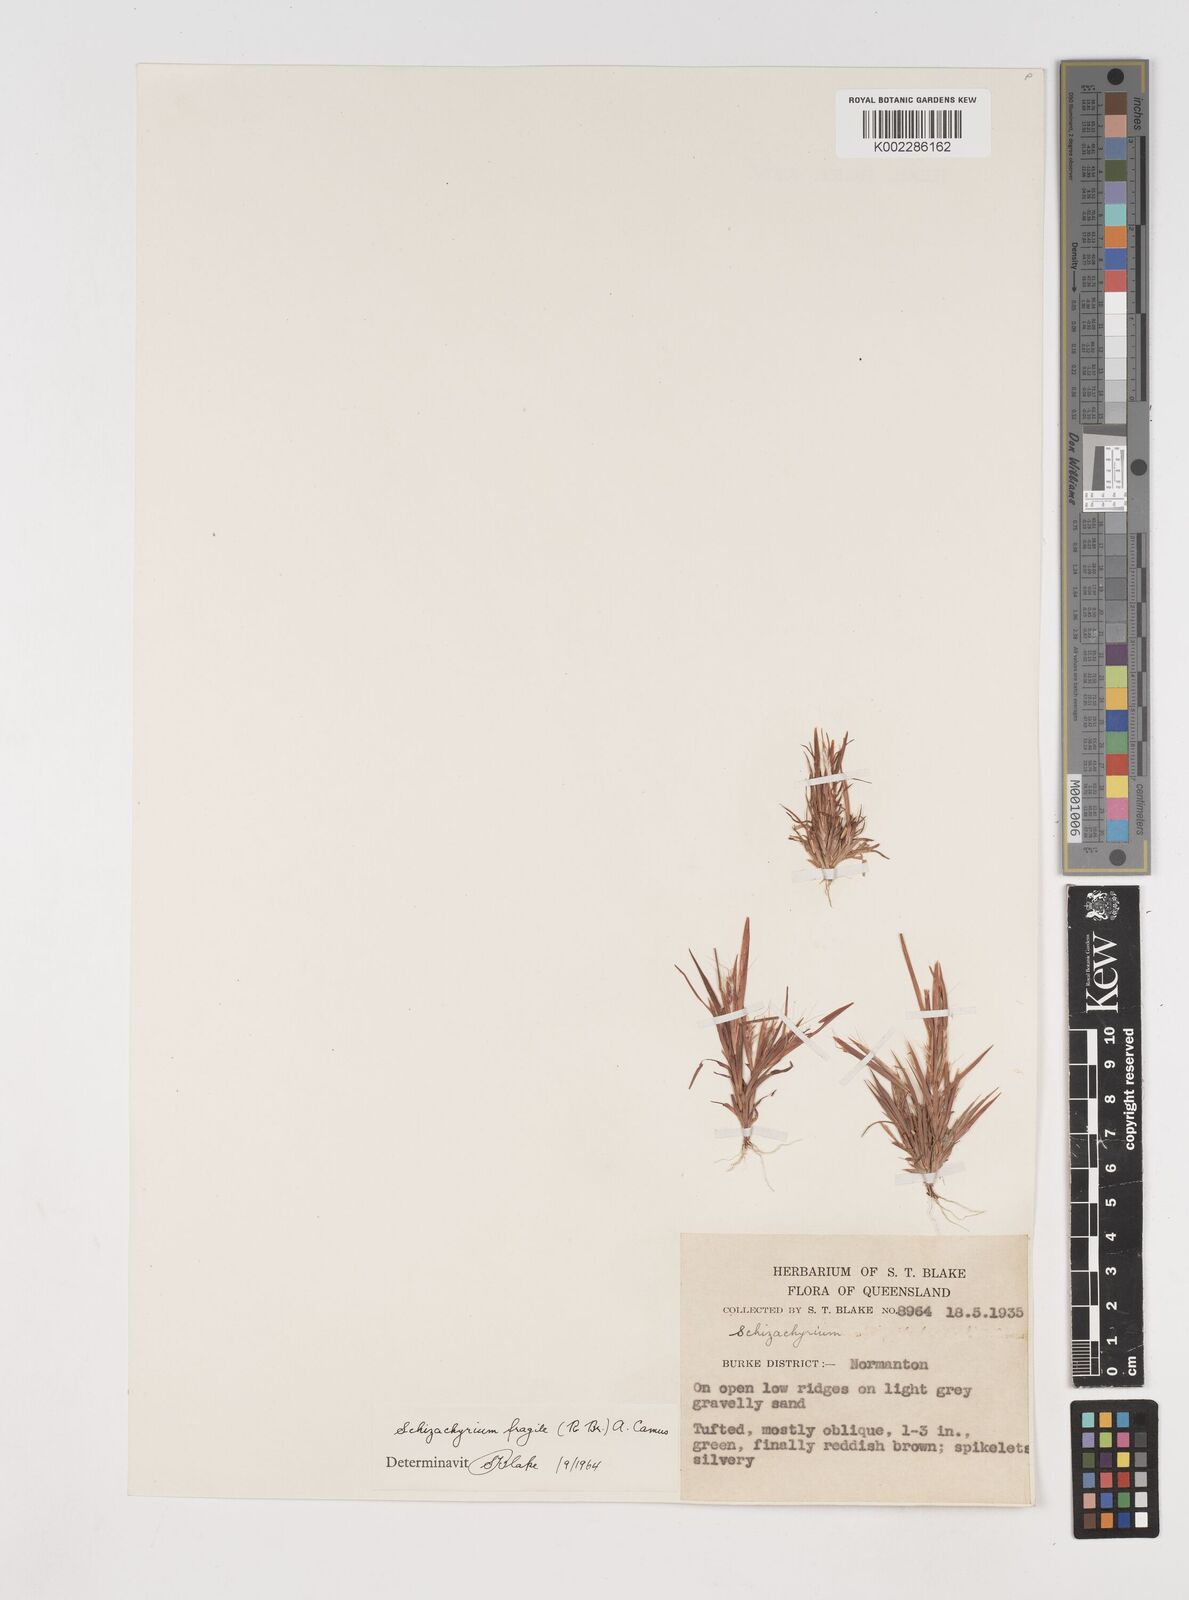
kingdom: Plantae
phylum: Tracheophyta
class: Liliopsida
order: Poales
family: Poaceae
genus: Schizachyrium
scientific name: Schizachyrium fragile
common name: Red spathe grass
